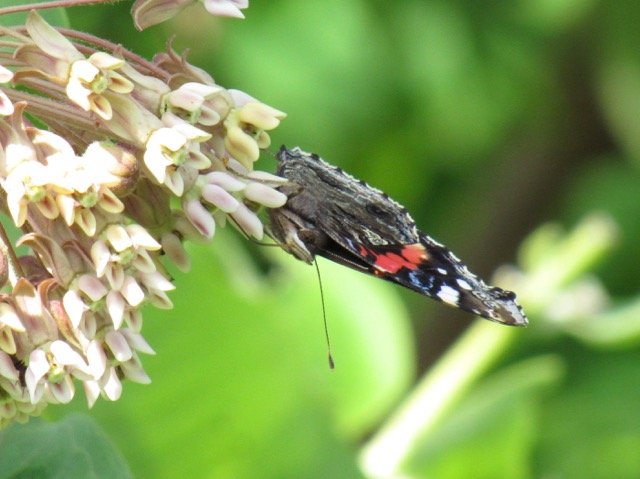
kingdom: Animalia
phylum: Arthropoda
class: Insecta
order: Lepidoptera
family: Nymphalidae
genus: Vanessa
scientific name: Vanessa atalanta
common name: Red Admiral
